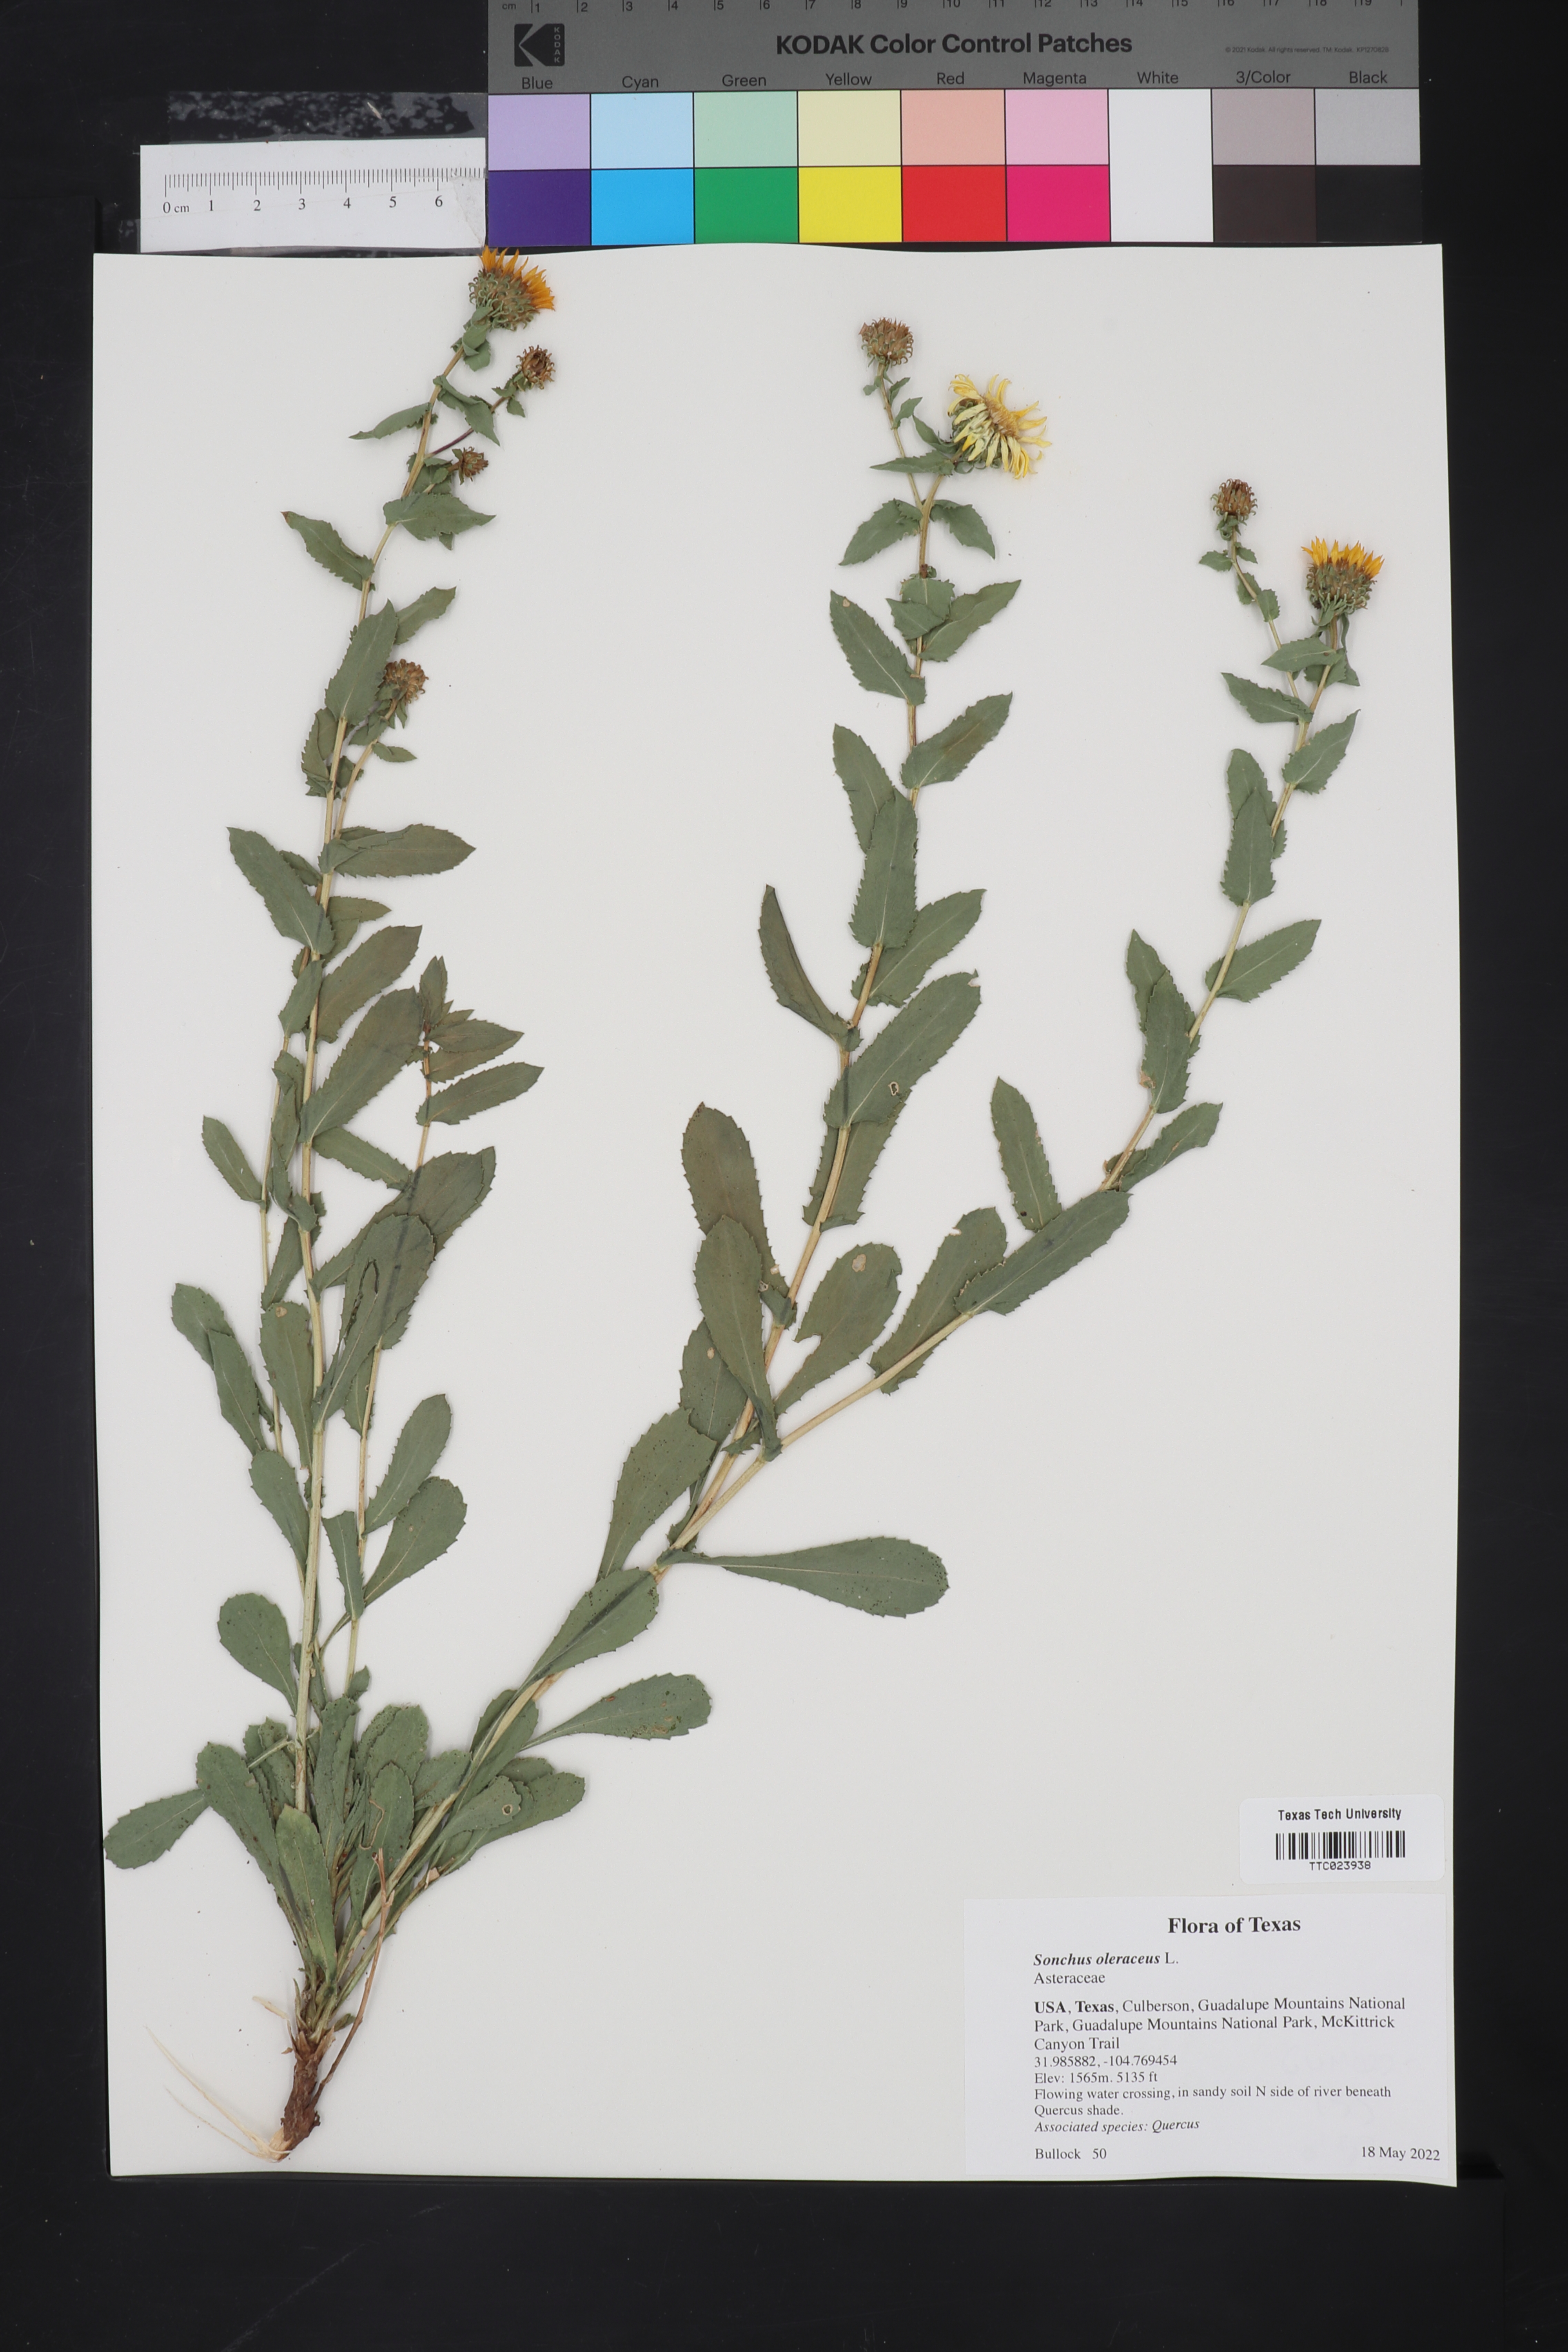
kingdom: Plantae
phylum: Tracheophyta
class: Magnoliopsida
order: Asterales
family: Asteraceae
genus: Sonchus
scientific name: Sonchus oleraceus
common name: Common sowthistle
